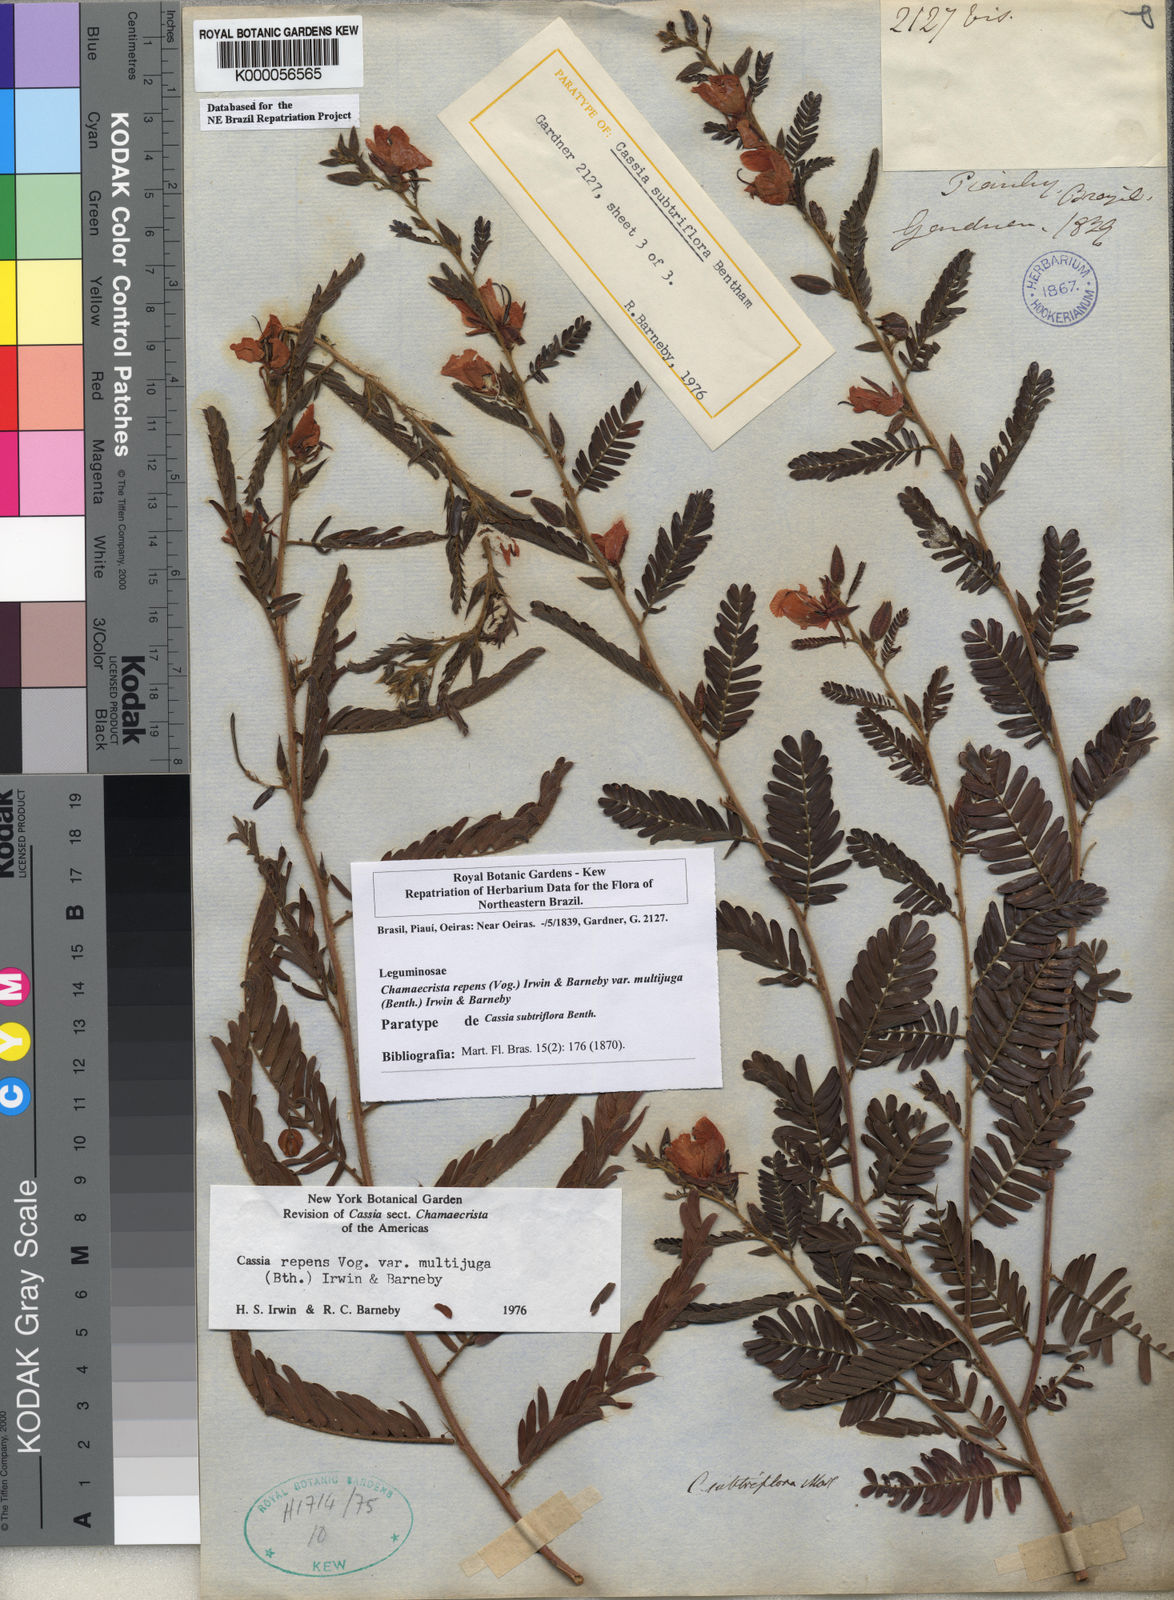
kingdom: Plantae
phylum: Tracheophyta
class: Magnoliopsida
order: Fabales
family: Fabaceae
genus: Chamaecrista
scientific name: Chamaecrista repens
